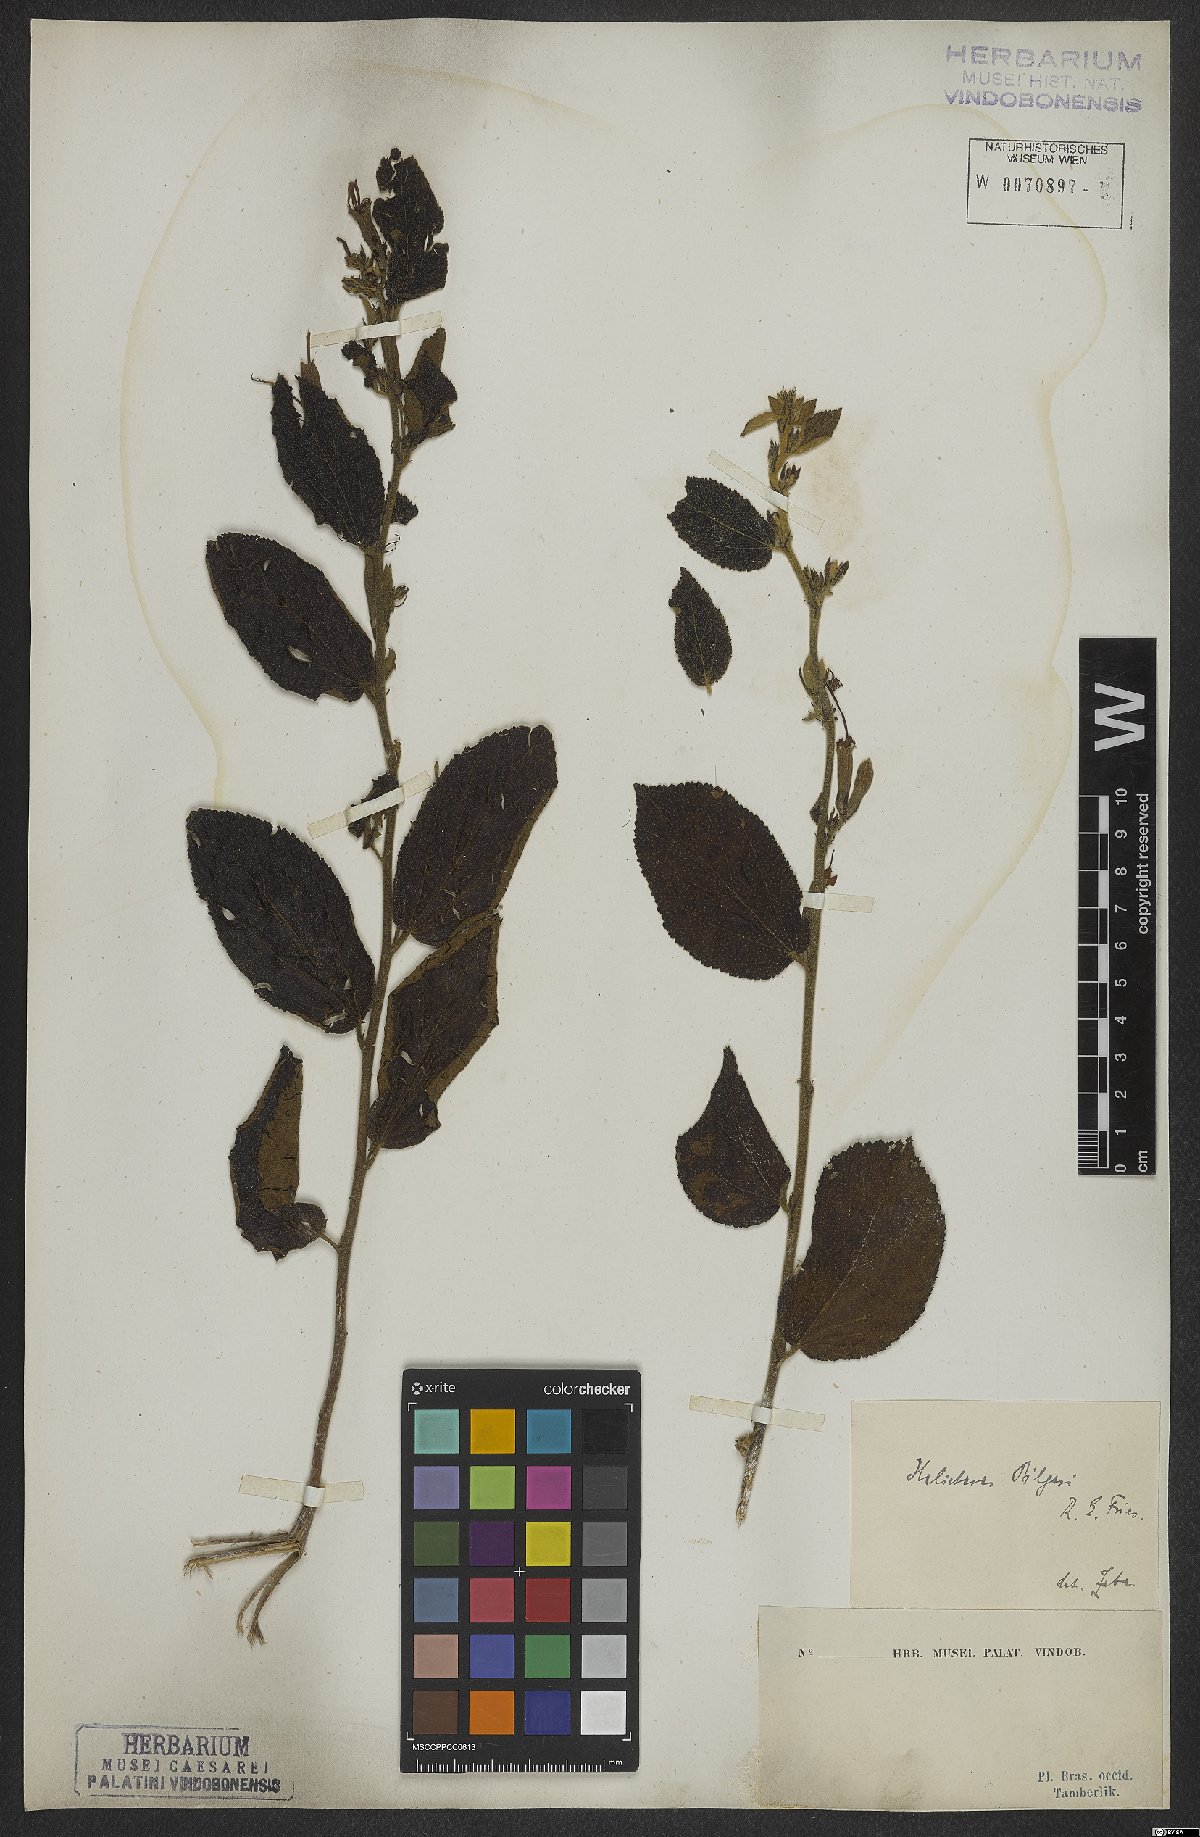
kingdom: Plantae
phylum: Tracheophyta
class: Magnoliopsida
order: Malvales
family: Malvaceae
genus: Helicteres
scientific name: Helicteres pilgeri
